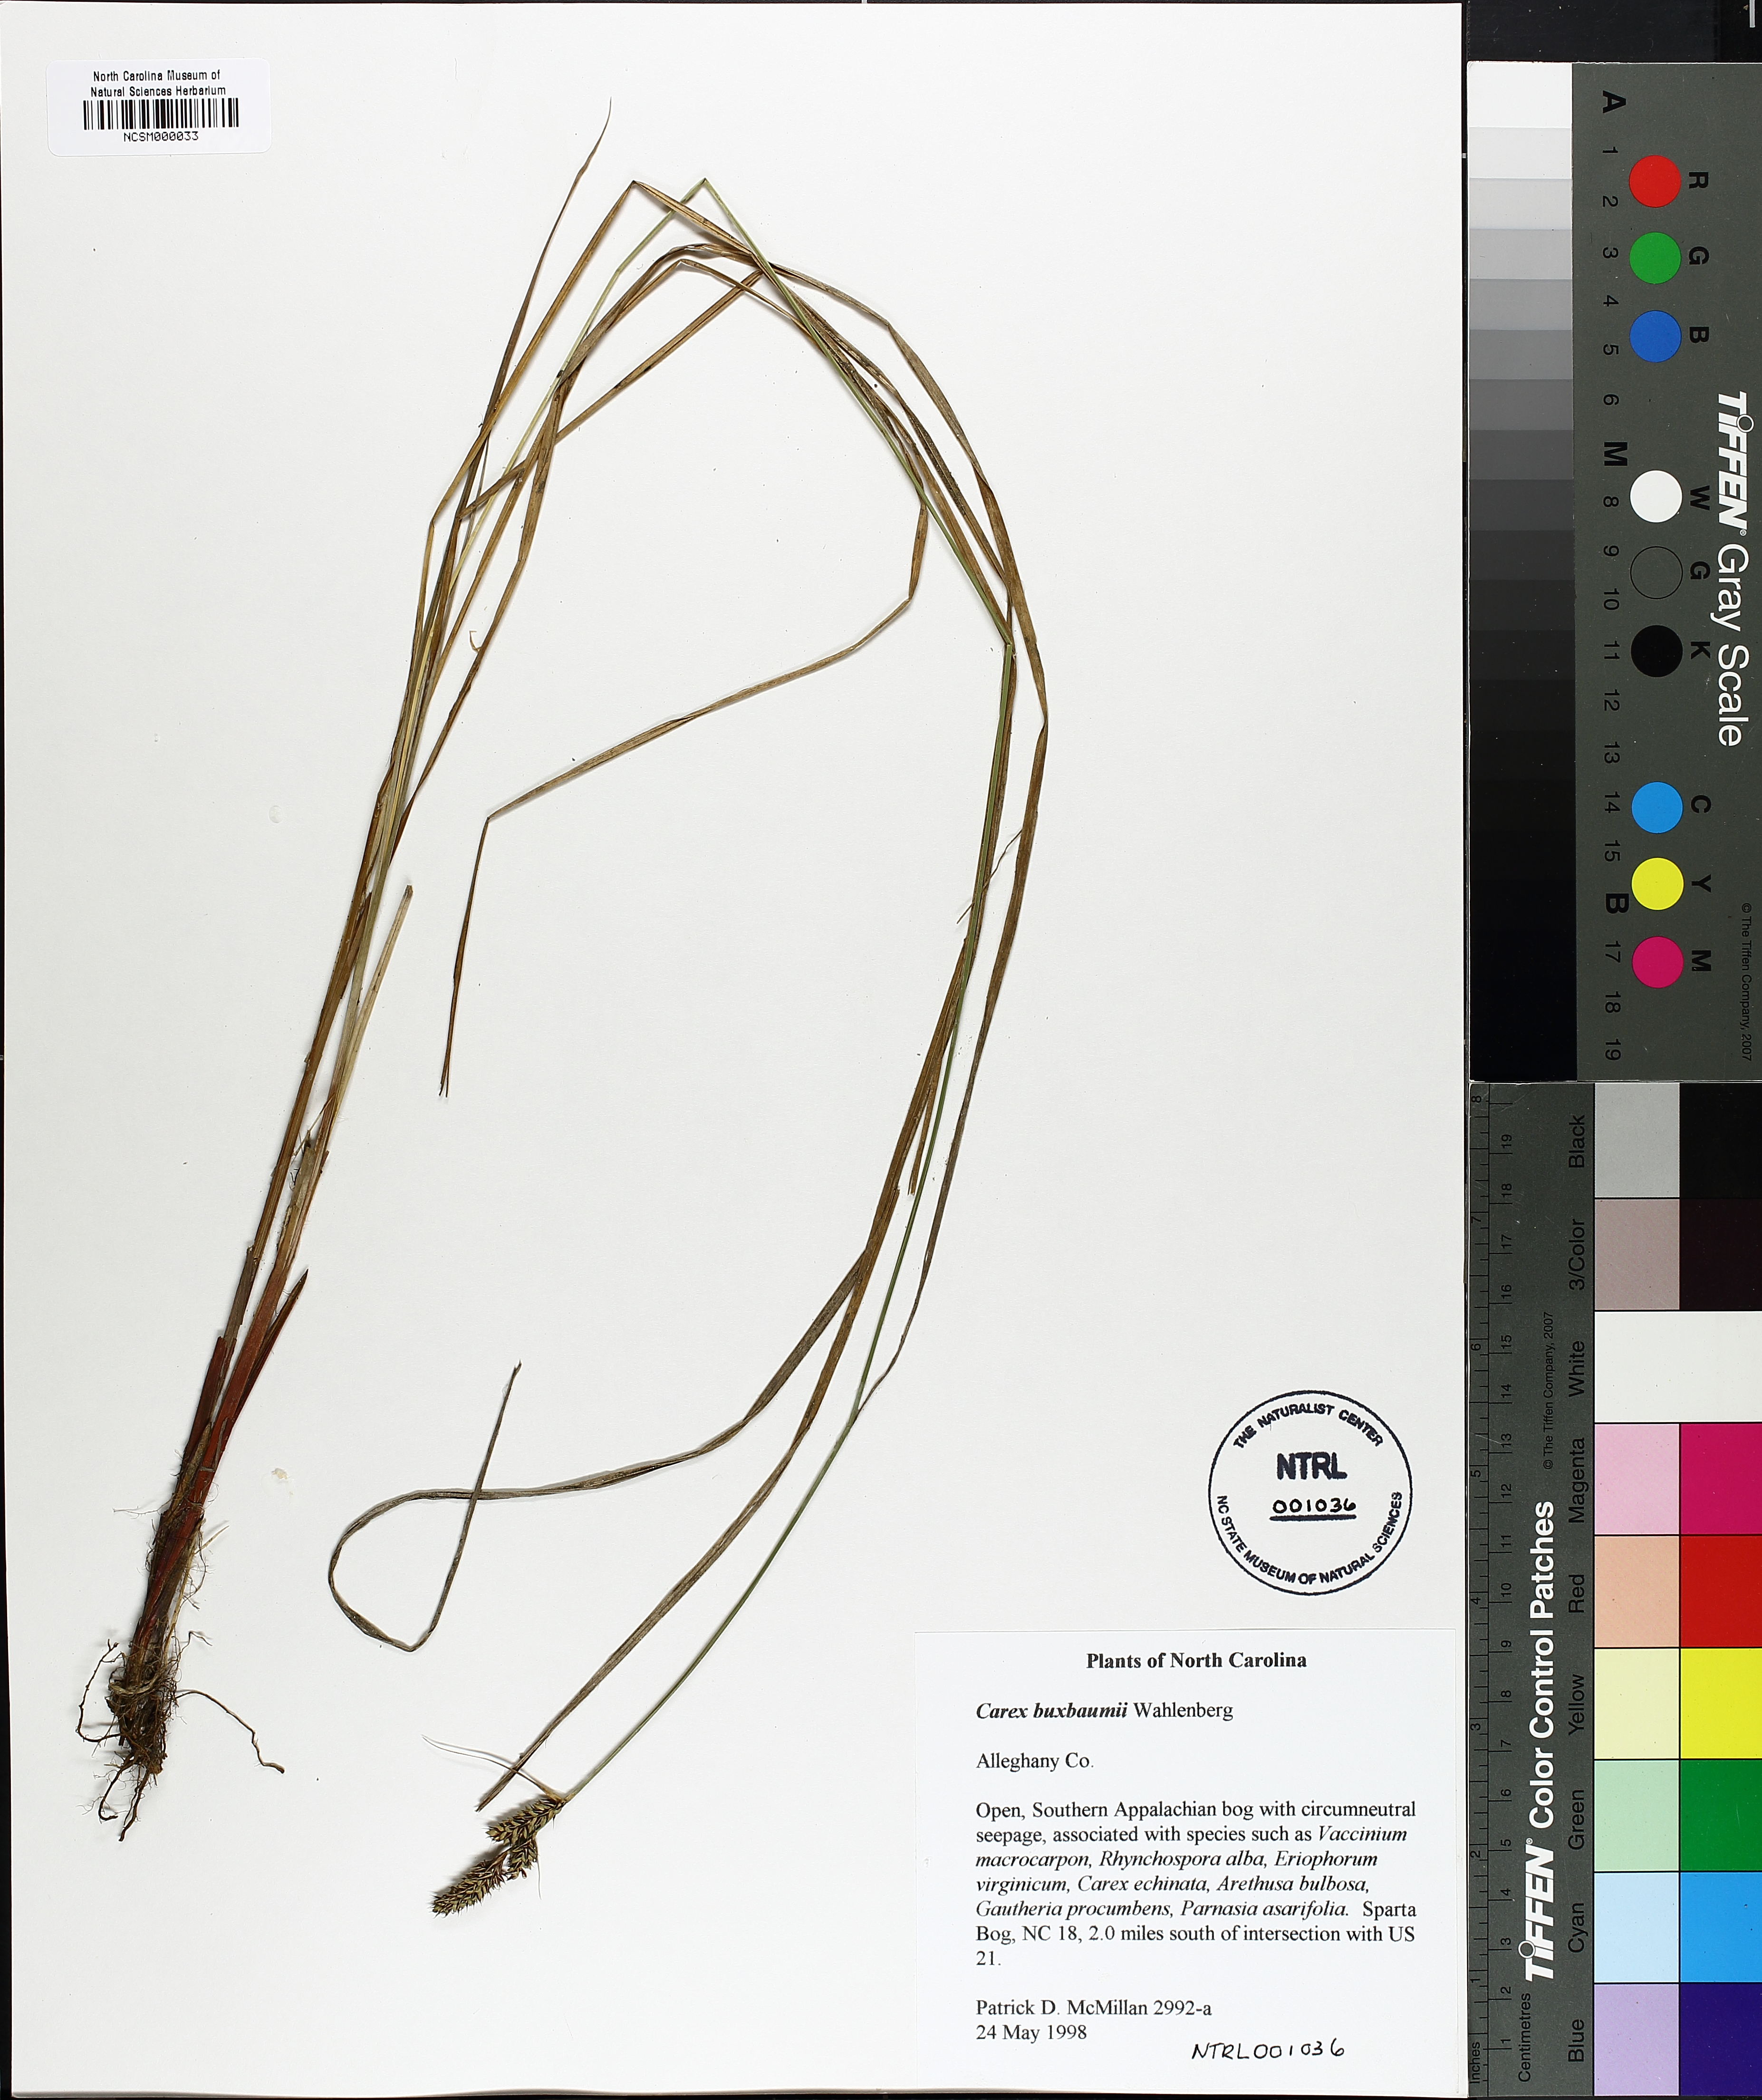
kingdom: Plantae
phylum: Tracheophyta
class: Liliopsida
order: Poales
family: Cyperaceae
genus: Carex
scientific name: Carex buxbaumii
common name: Club sedge
